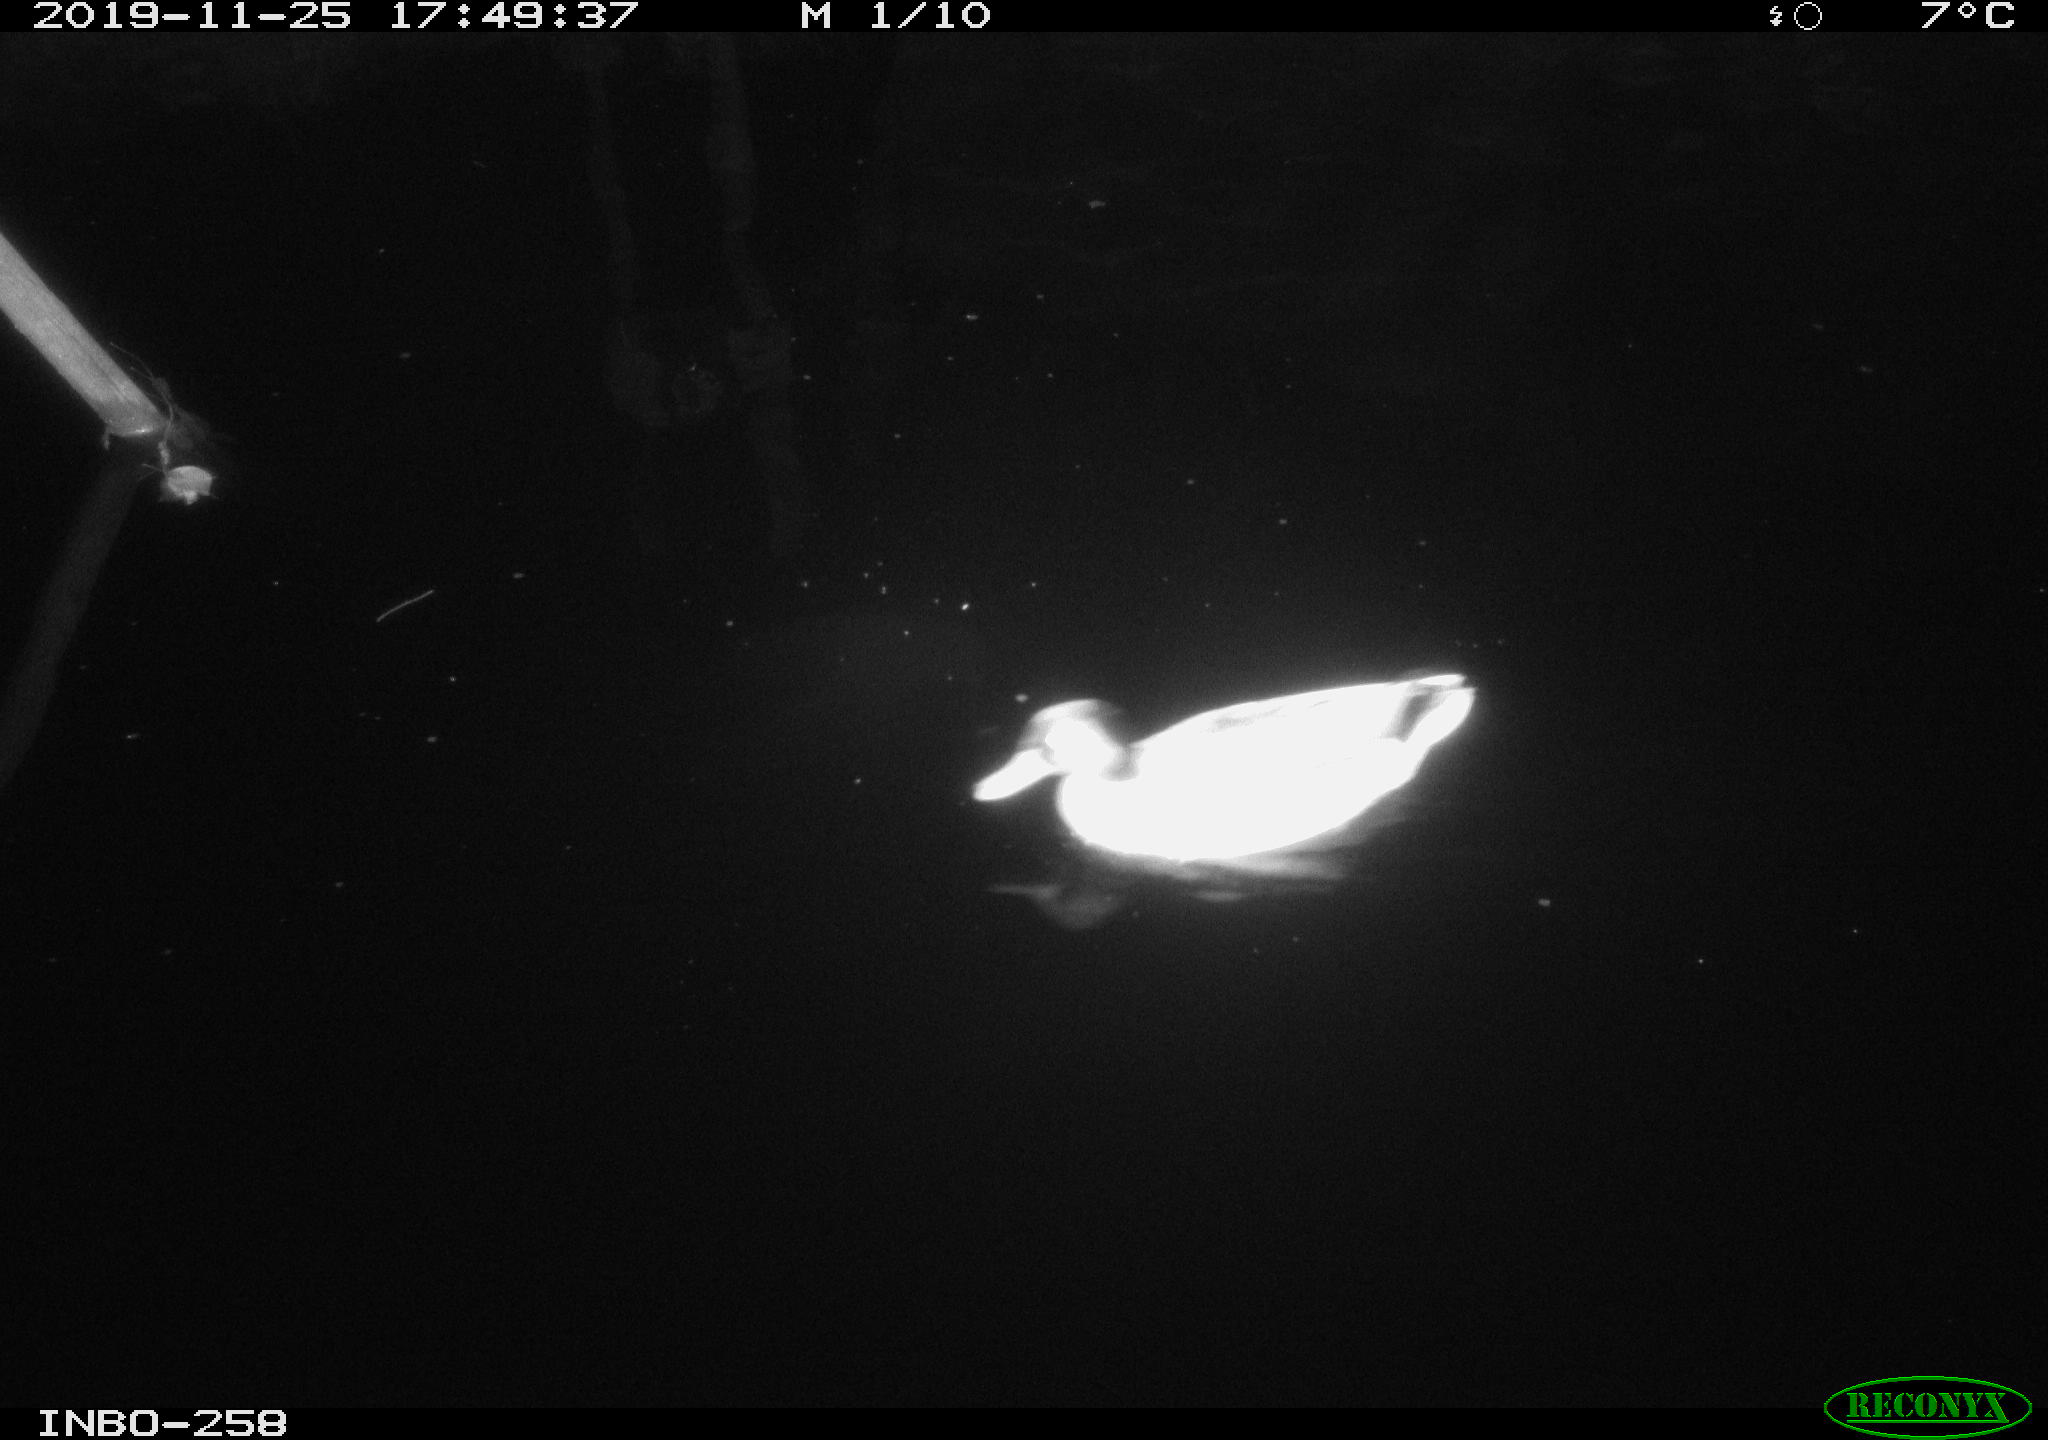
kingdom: Animalia
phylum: Chordata
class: Aves
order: Anseriformes
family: Anatidae
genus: Anas
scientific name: Anas platyrhynchos
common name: Mallard
